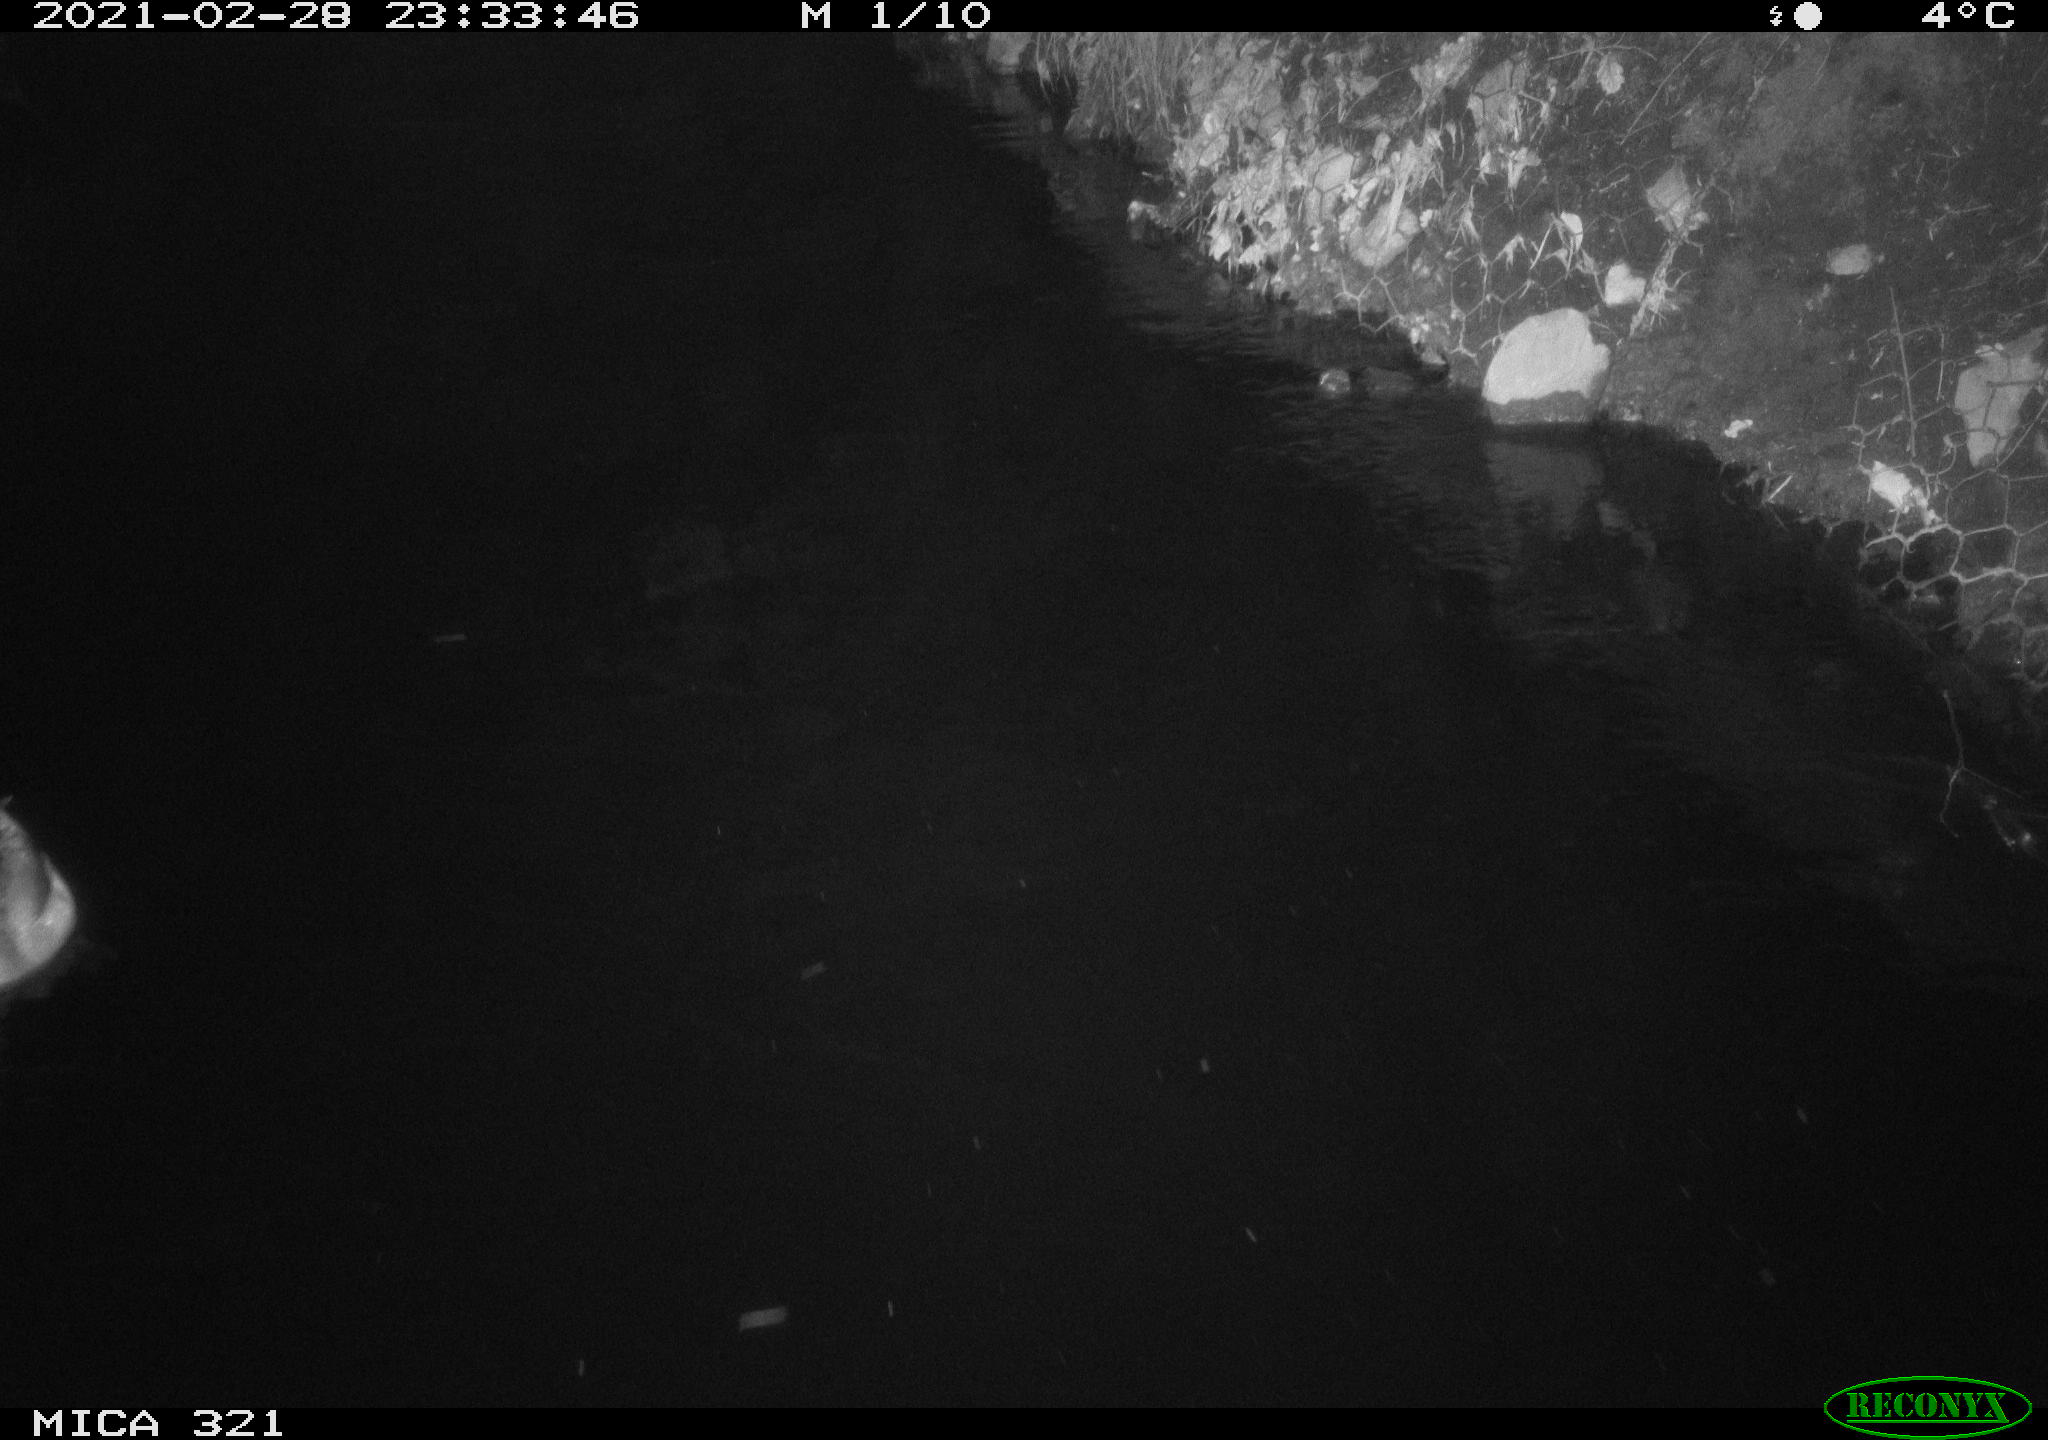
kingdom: Animalia
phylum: Chordata
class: Aves
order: Anseriformes
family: Anatidae
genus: Anas
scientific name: Anas platyrhynchos
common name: Mallard
